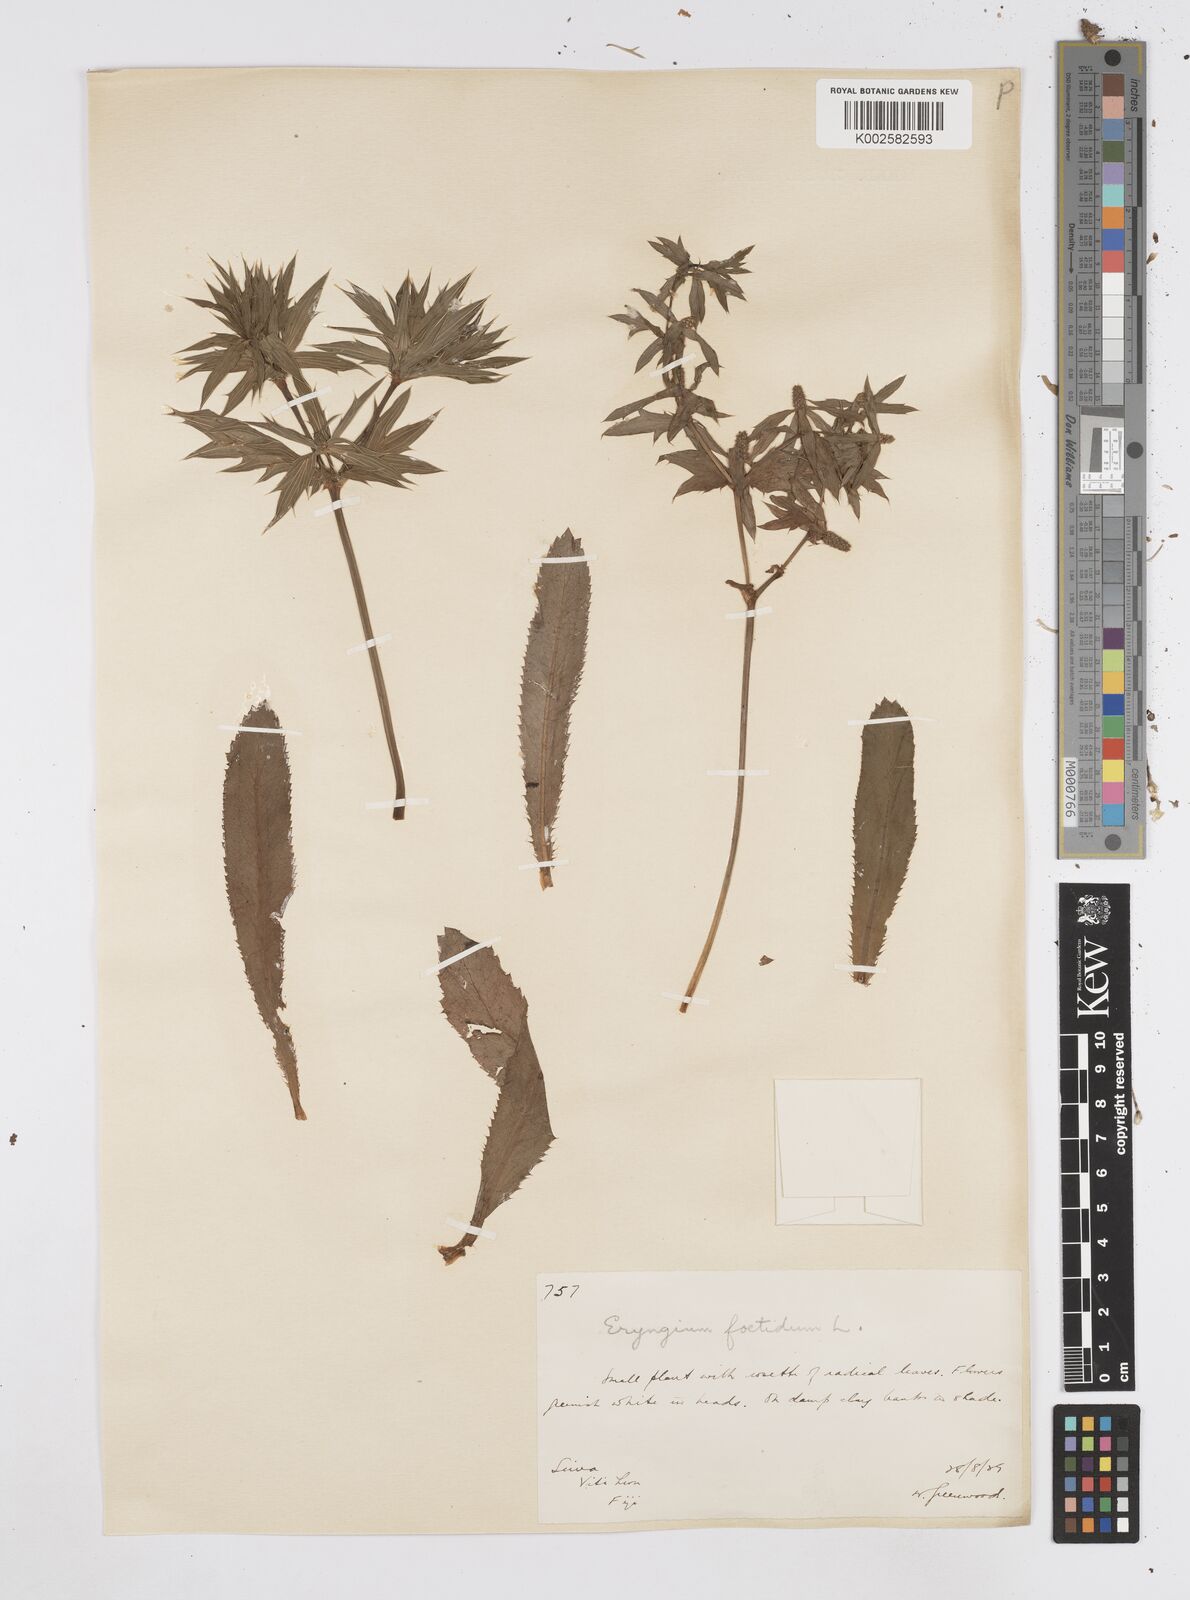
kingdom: Plantae
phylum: Tracheophyta
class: Magnoliopsida
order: Apiales
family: Apiaceae
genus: Eryngium
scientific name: Eryngium foetidum
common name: Fitweed
